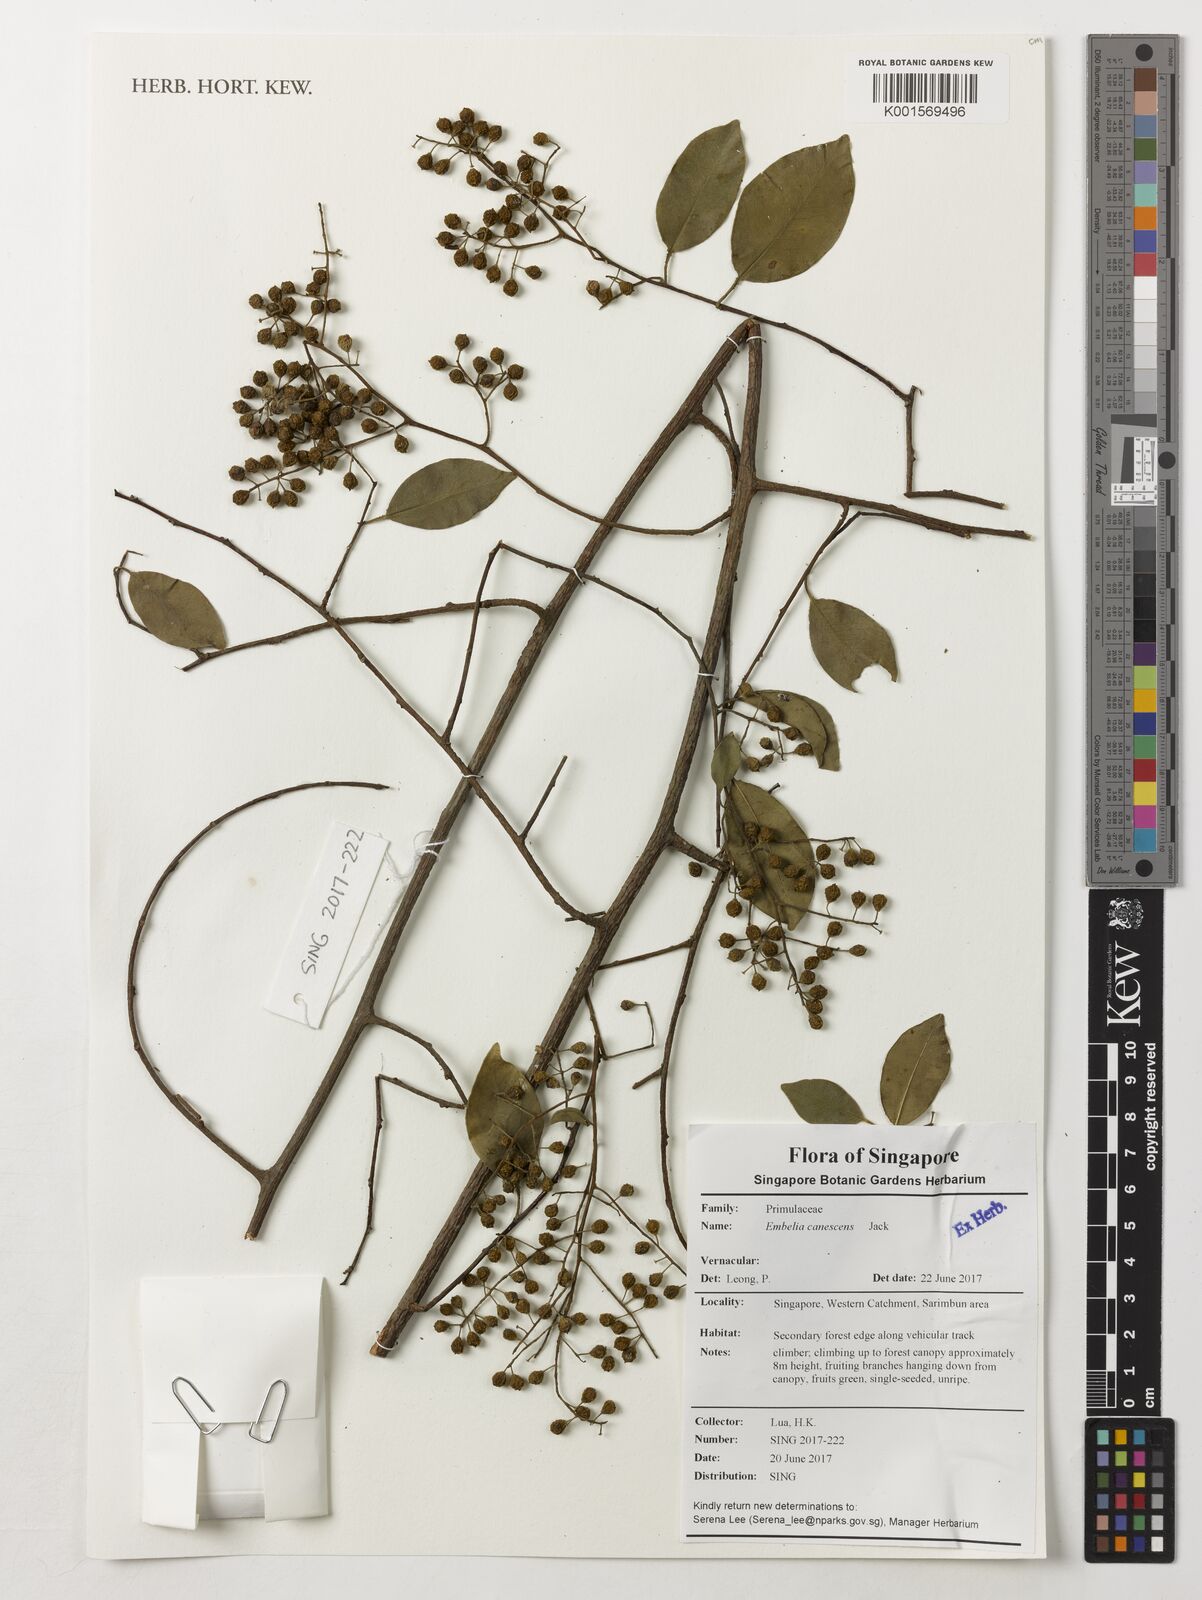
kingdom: Plantae
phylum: Tracheophyta
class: Magnoliopsida
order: Ericales
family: Primulaceae
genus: Embelia
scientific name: Embelia canescens
